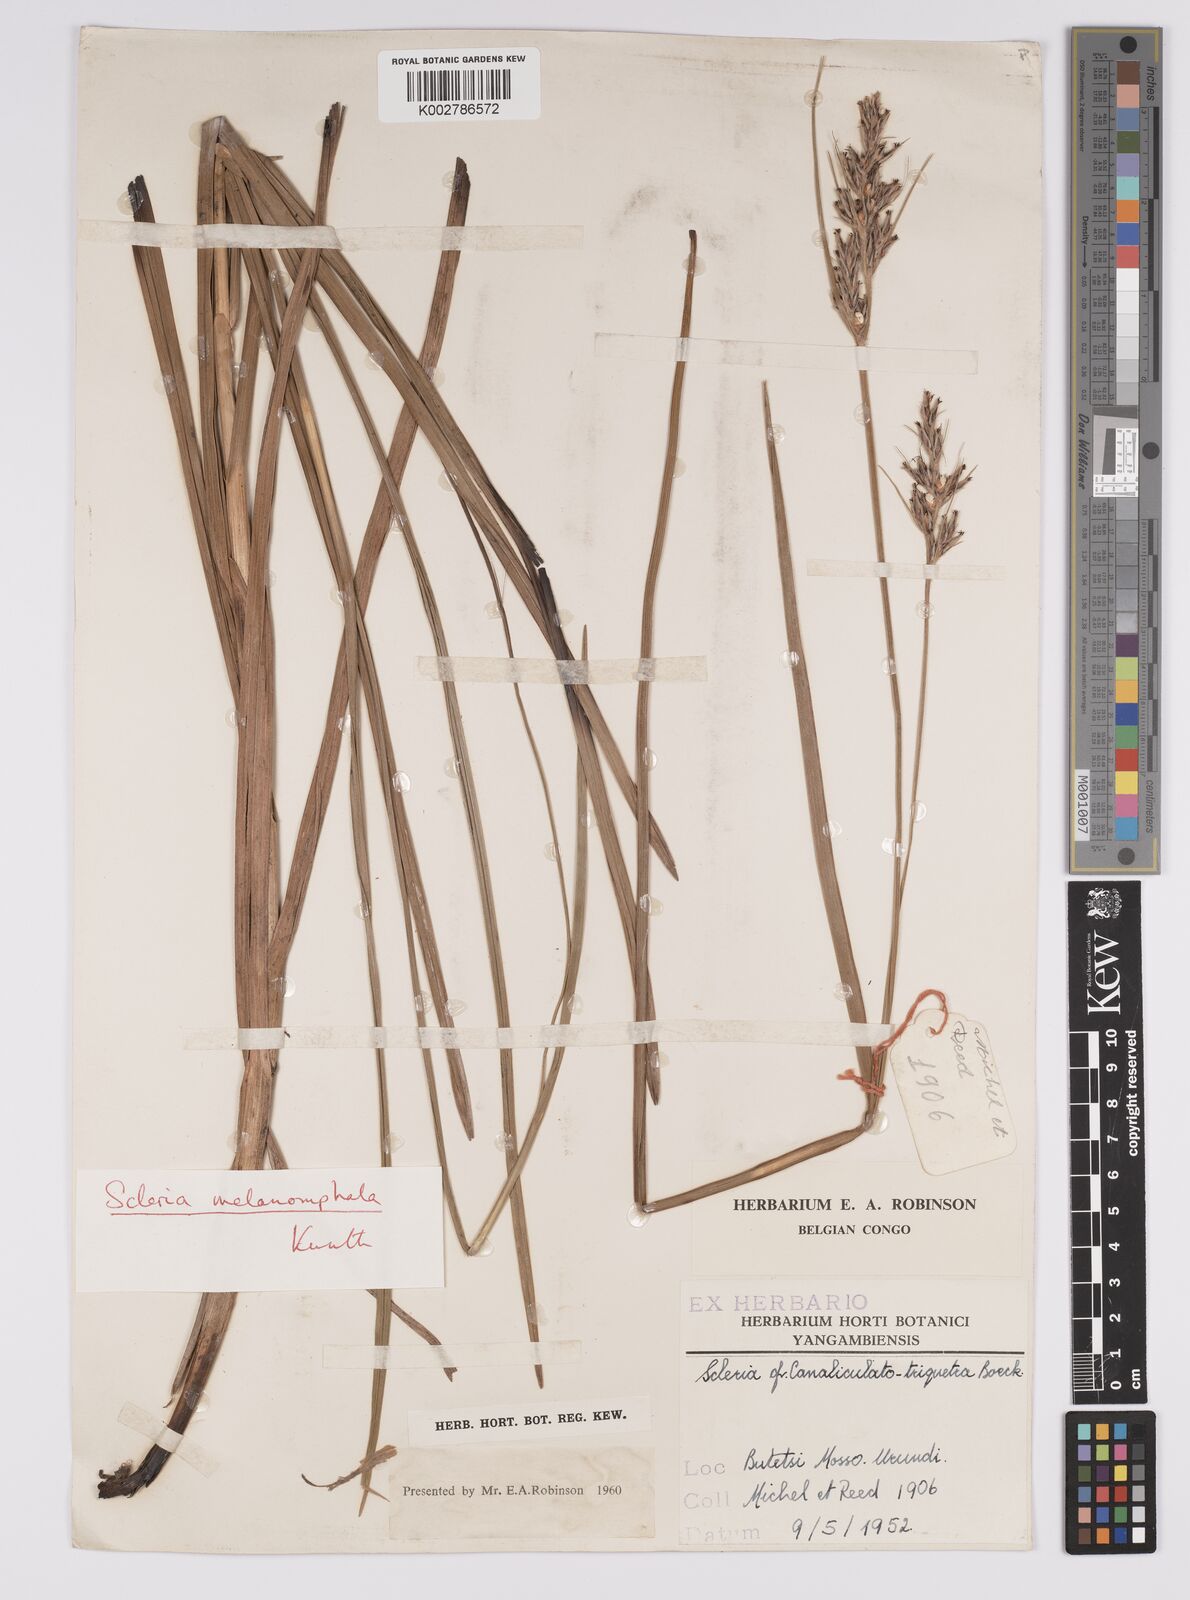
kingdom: Plantae
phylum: Tracheophyta
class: Liliopsida
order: Poales
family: Cyperaceae
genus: Scleria
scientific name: Scleria melanomphala
